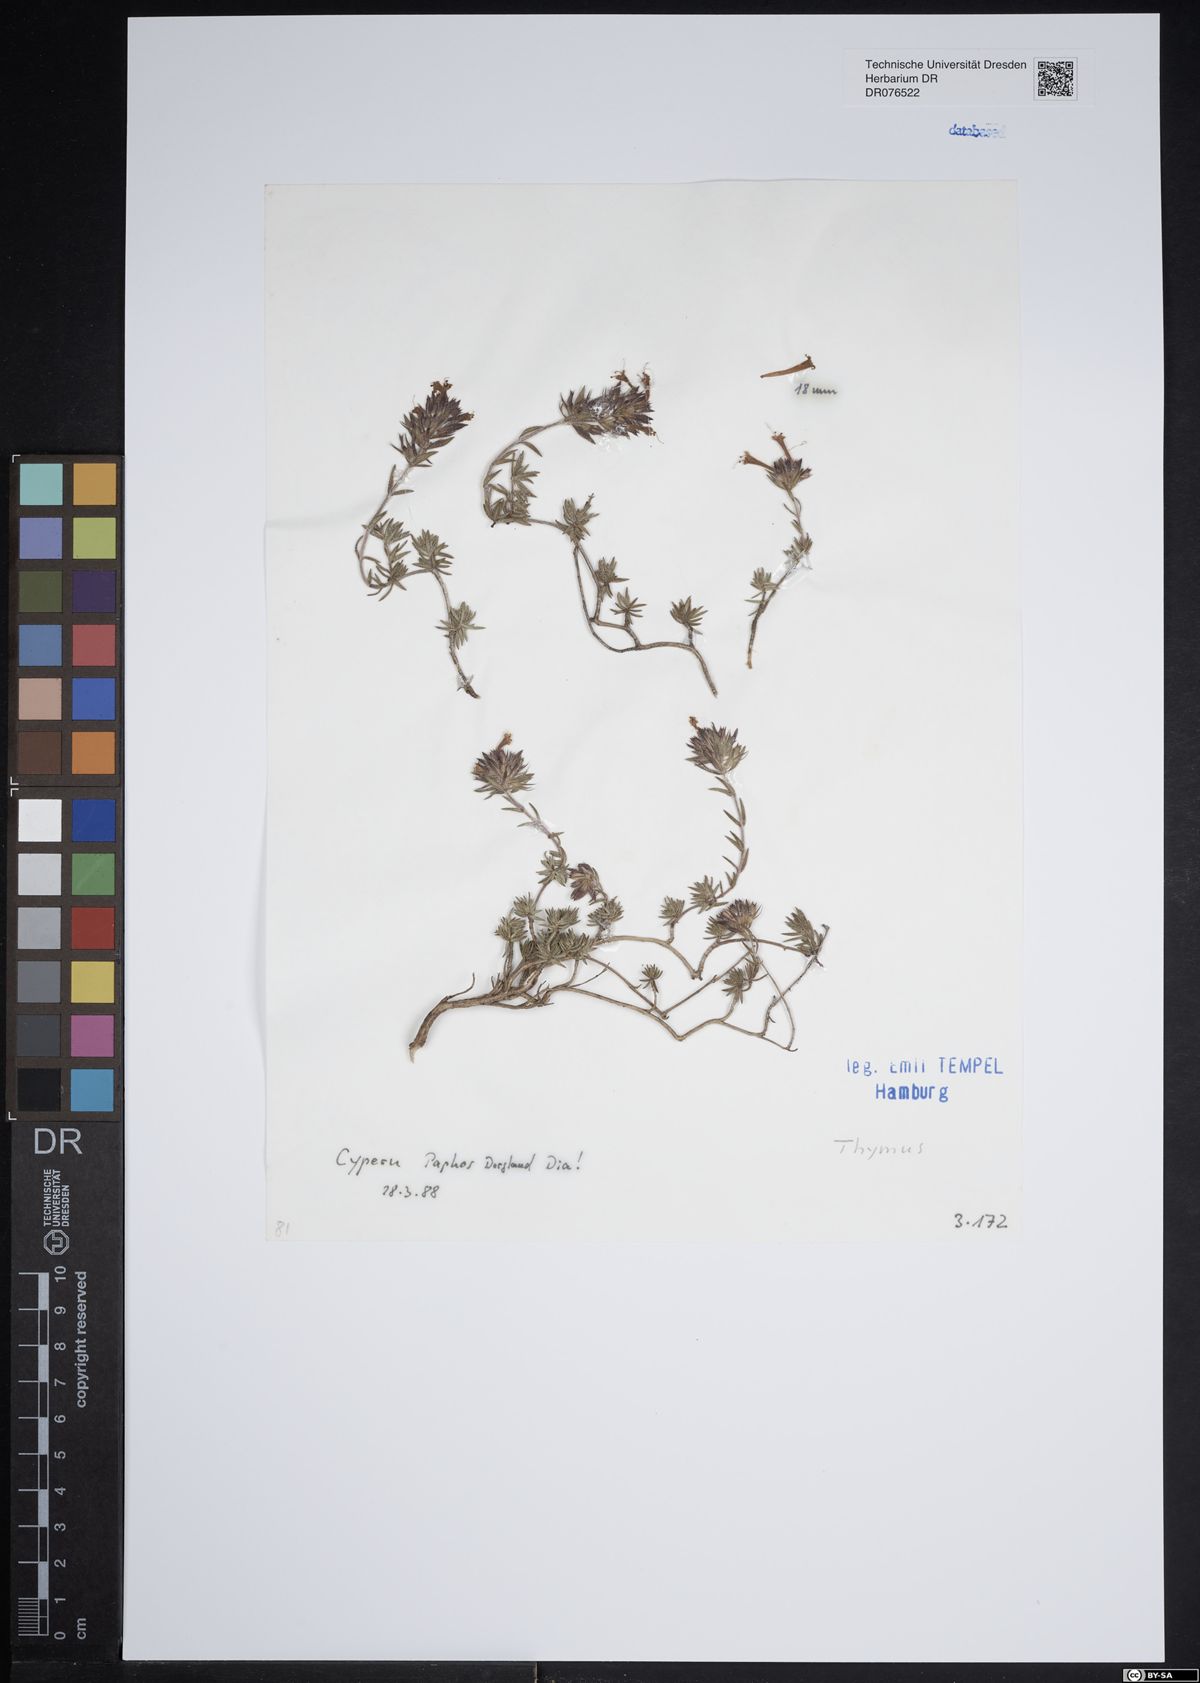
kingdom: Plantae
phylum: Tracheophyta
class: Magnoliopsida
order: Lamiales
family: Lamiaceae
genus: Thymus
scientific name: Thymus
